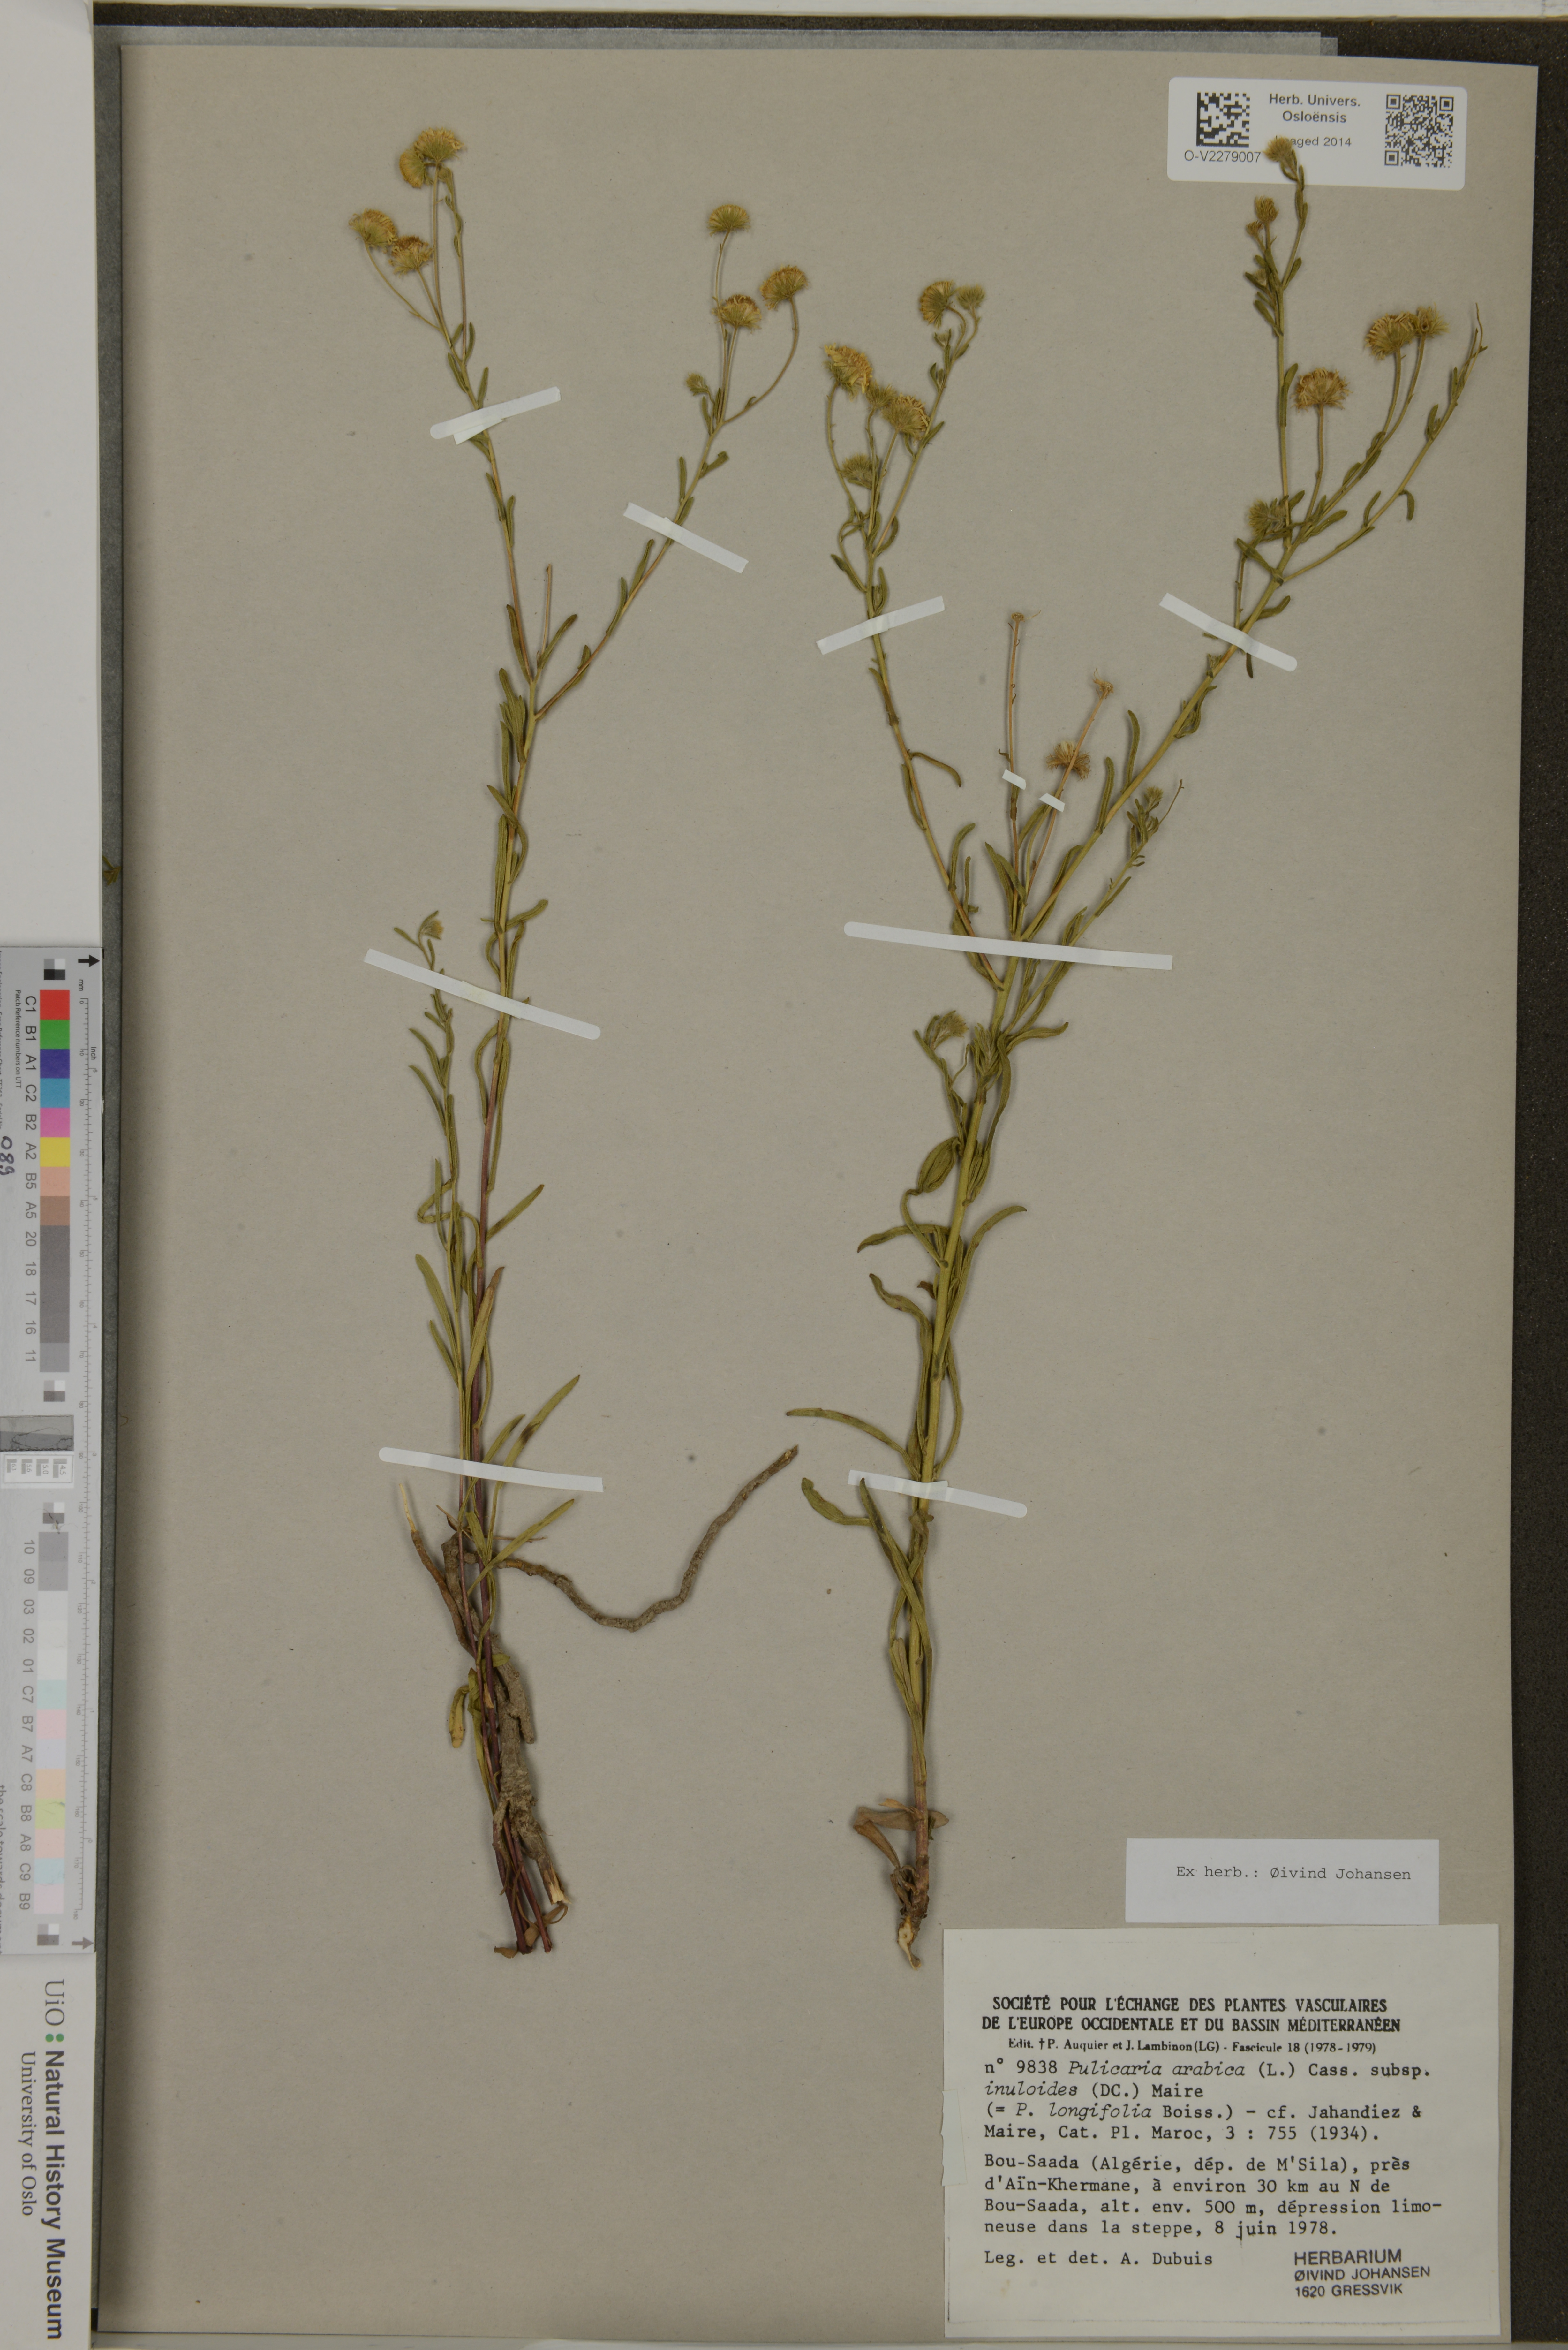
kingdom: Plantae
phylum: Tracheophyta
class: Magnoliopsida
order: Asterales
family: Asteraceae
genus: Pulicaria
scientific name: Pulicaria arabica
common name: Ladies' false fleabane
